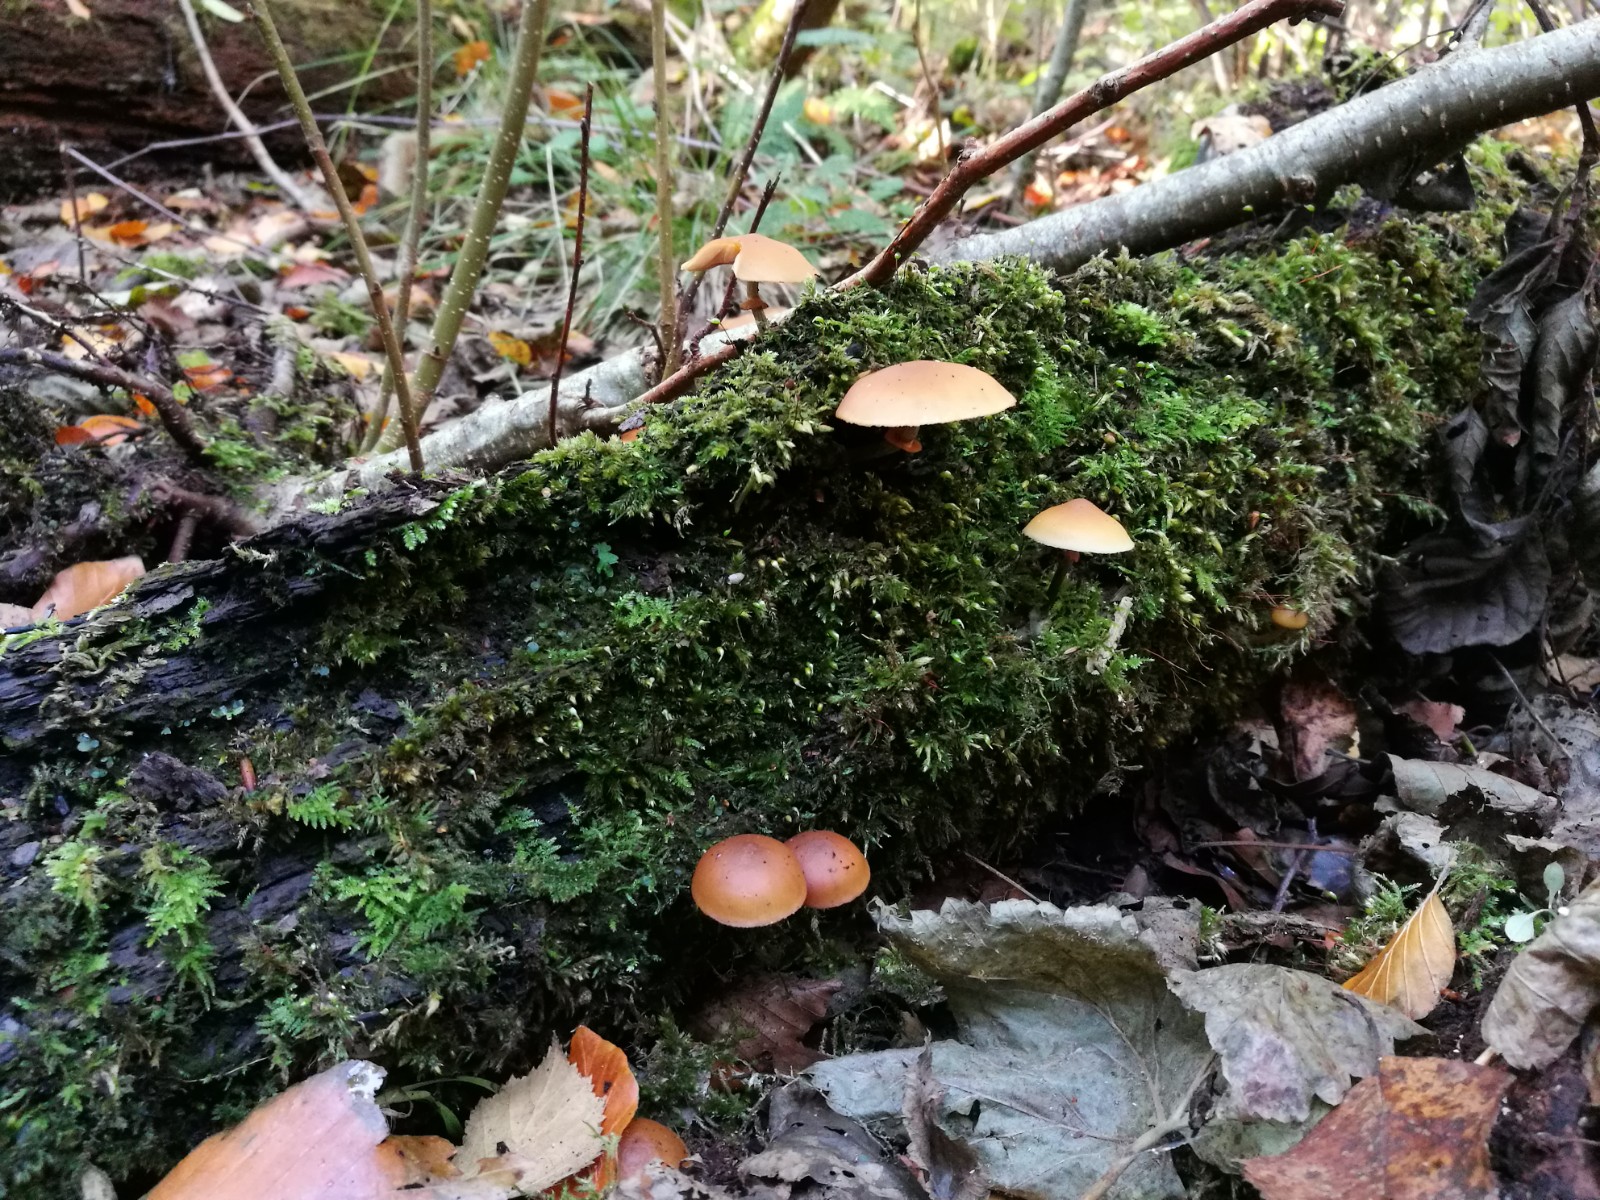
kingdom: Fungi
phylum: Basidiomycota
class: Agaricomycetes
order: Agaricales
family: Hymenogastraceae
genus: Galerina
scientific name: Galerina marginata
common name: randbæltet hjelmhat
